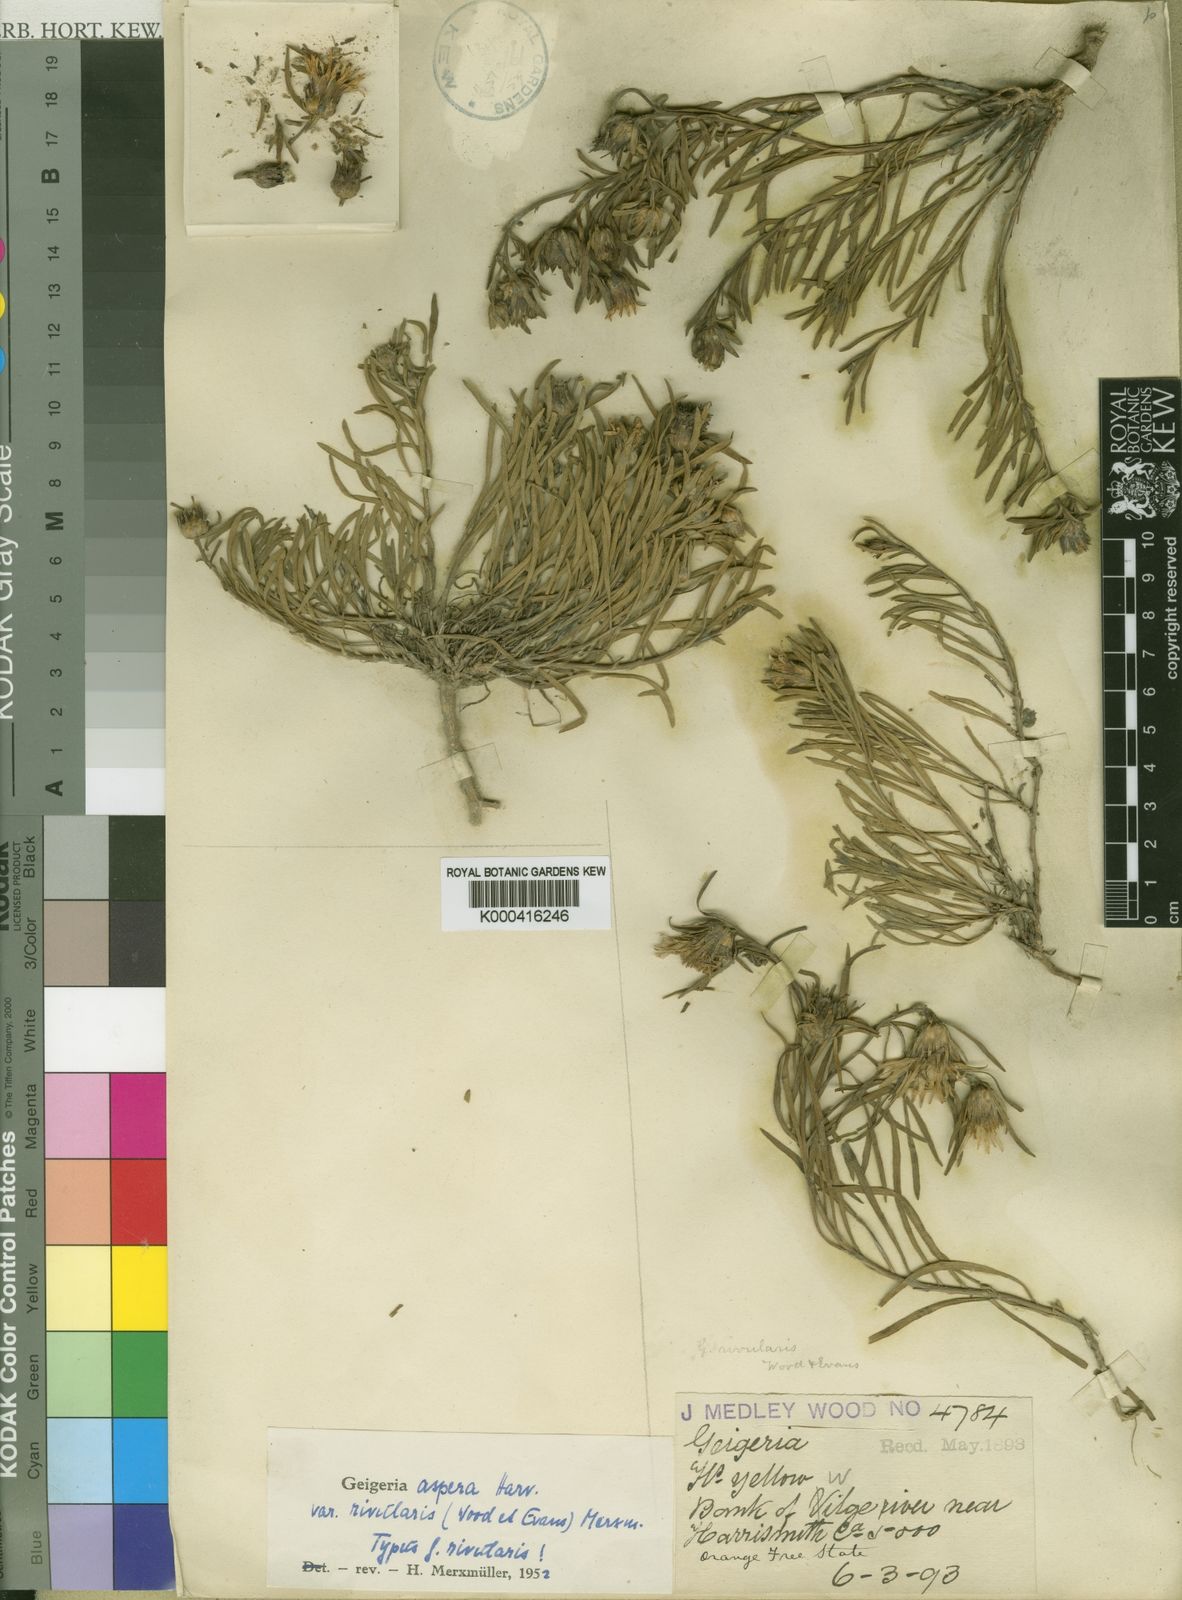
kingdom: Plantae
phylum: Tracheophyta
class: Magnoliopsida
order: Asterales
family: Asteraceae
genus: Geigeria
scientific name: Geigeria aspera
